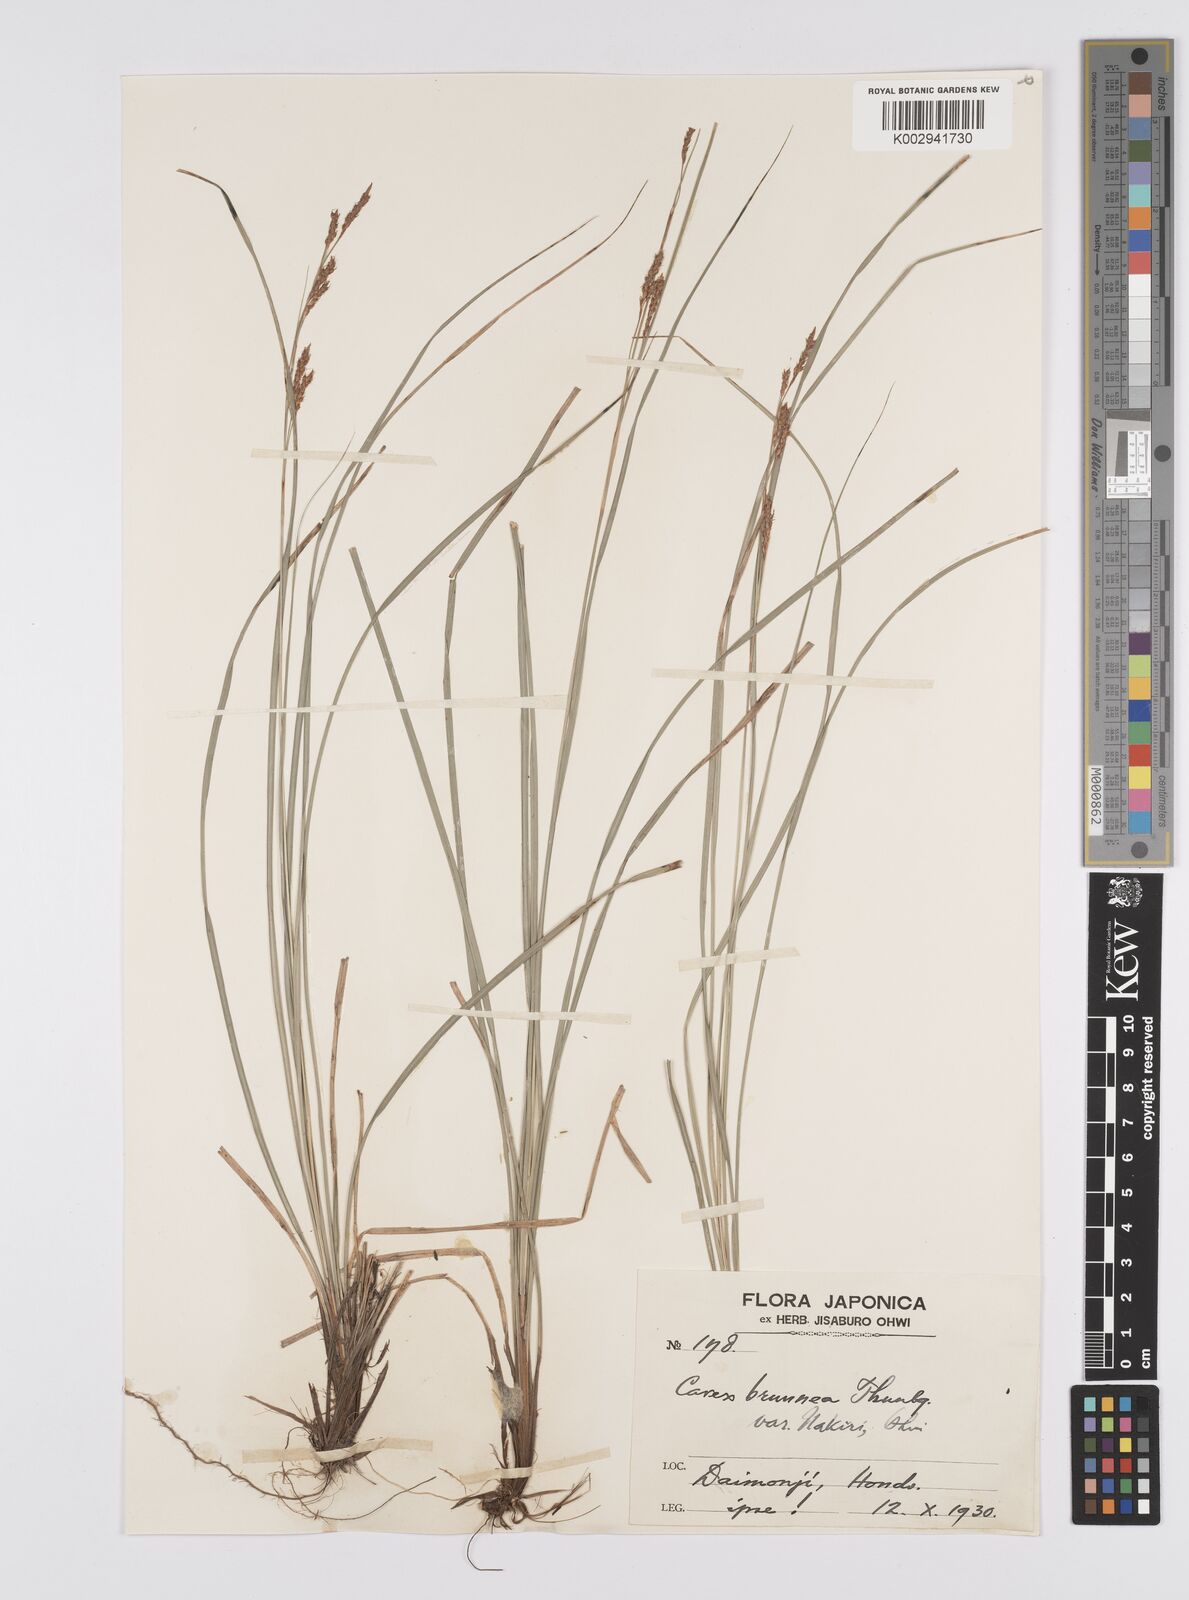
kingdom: Plantae
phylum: Tracheophyta
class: Liliopsida
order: Poales
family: Cyperaceae
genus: Carex
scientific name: Carex brunnea
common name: Greater brown sedge
